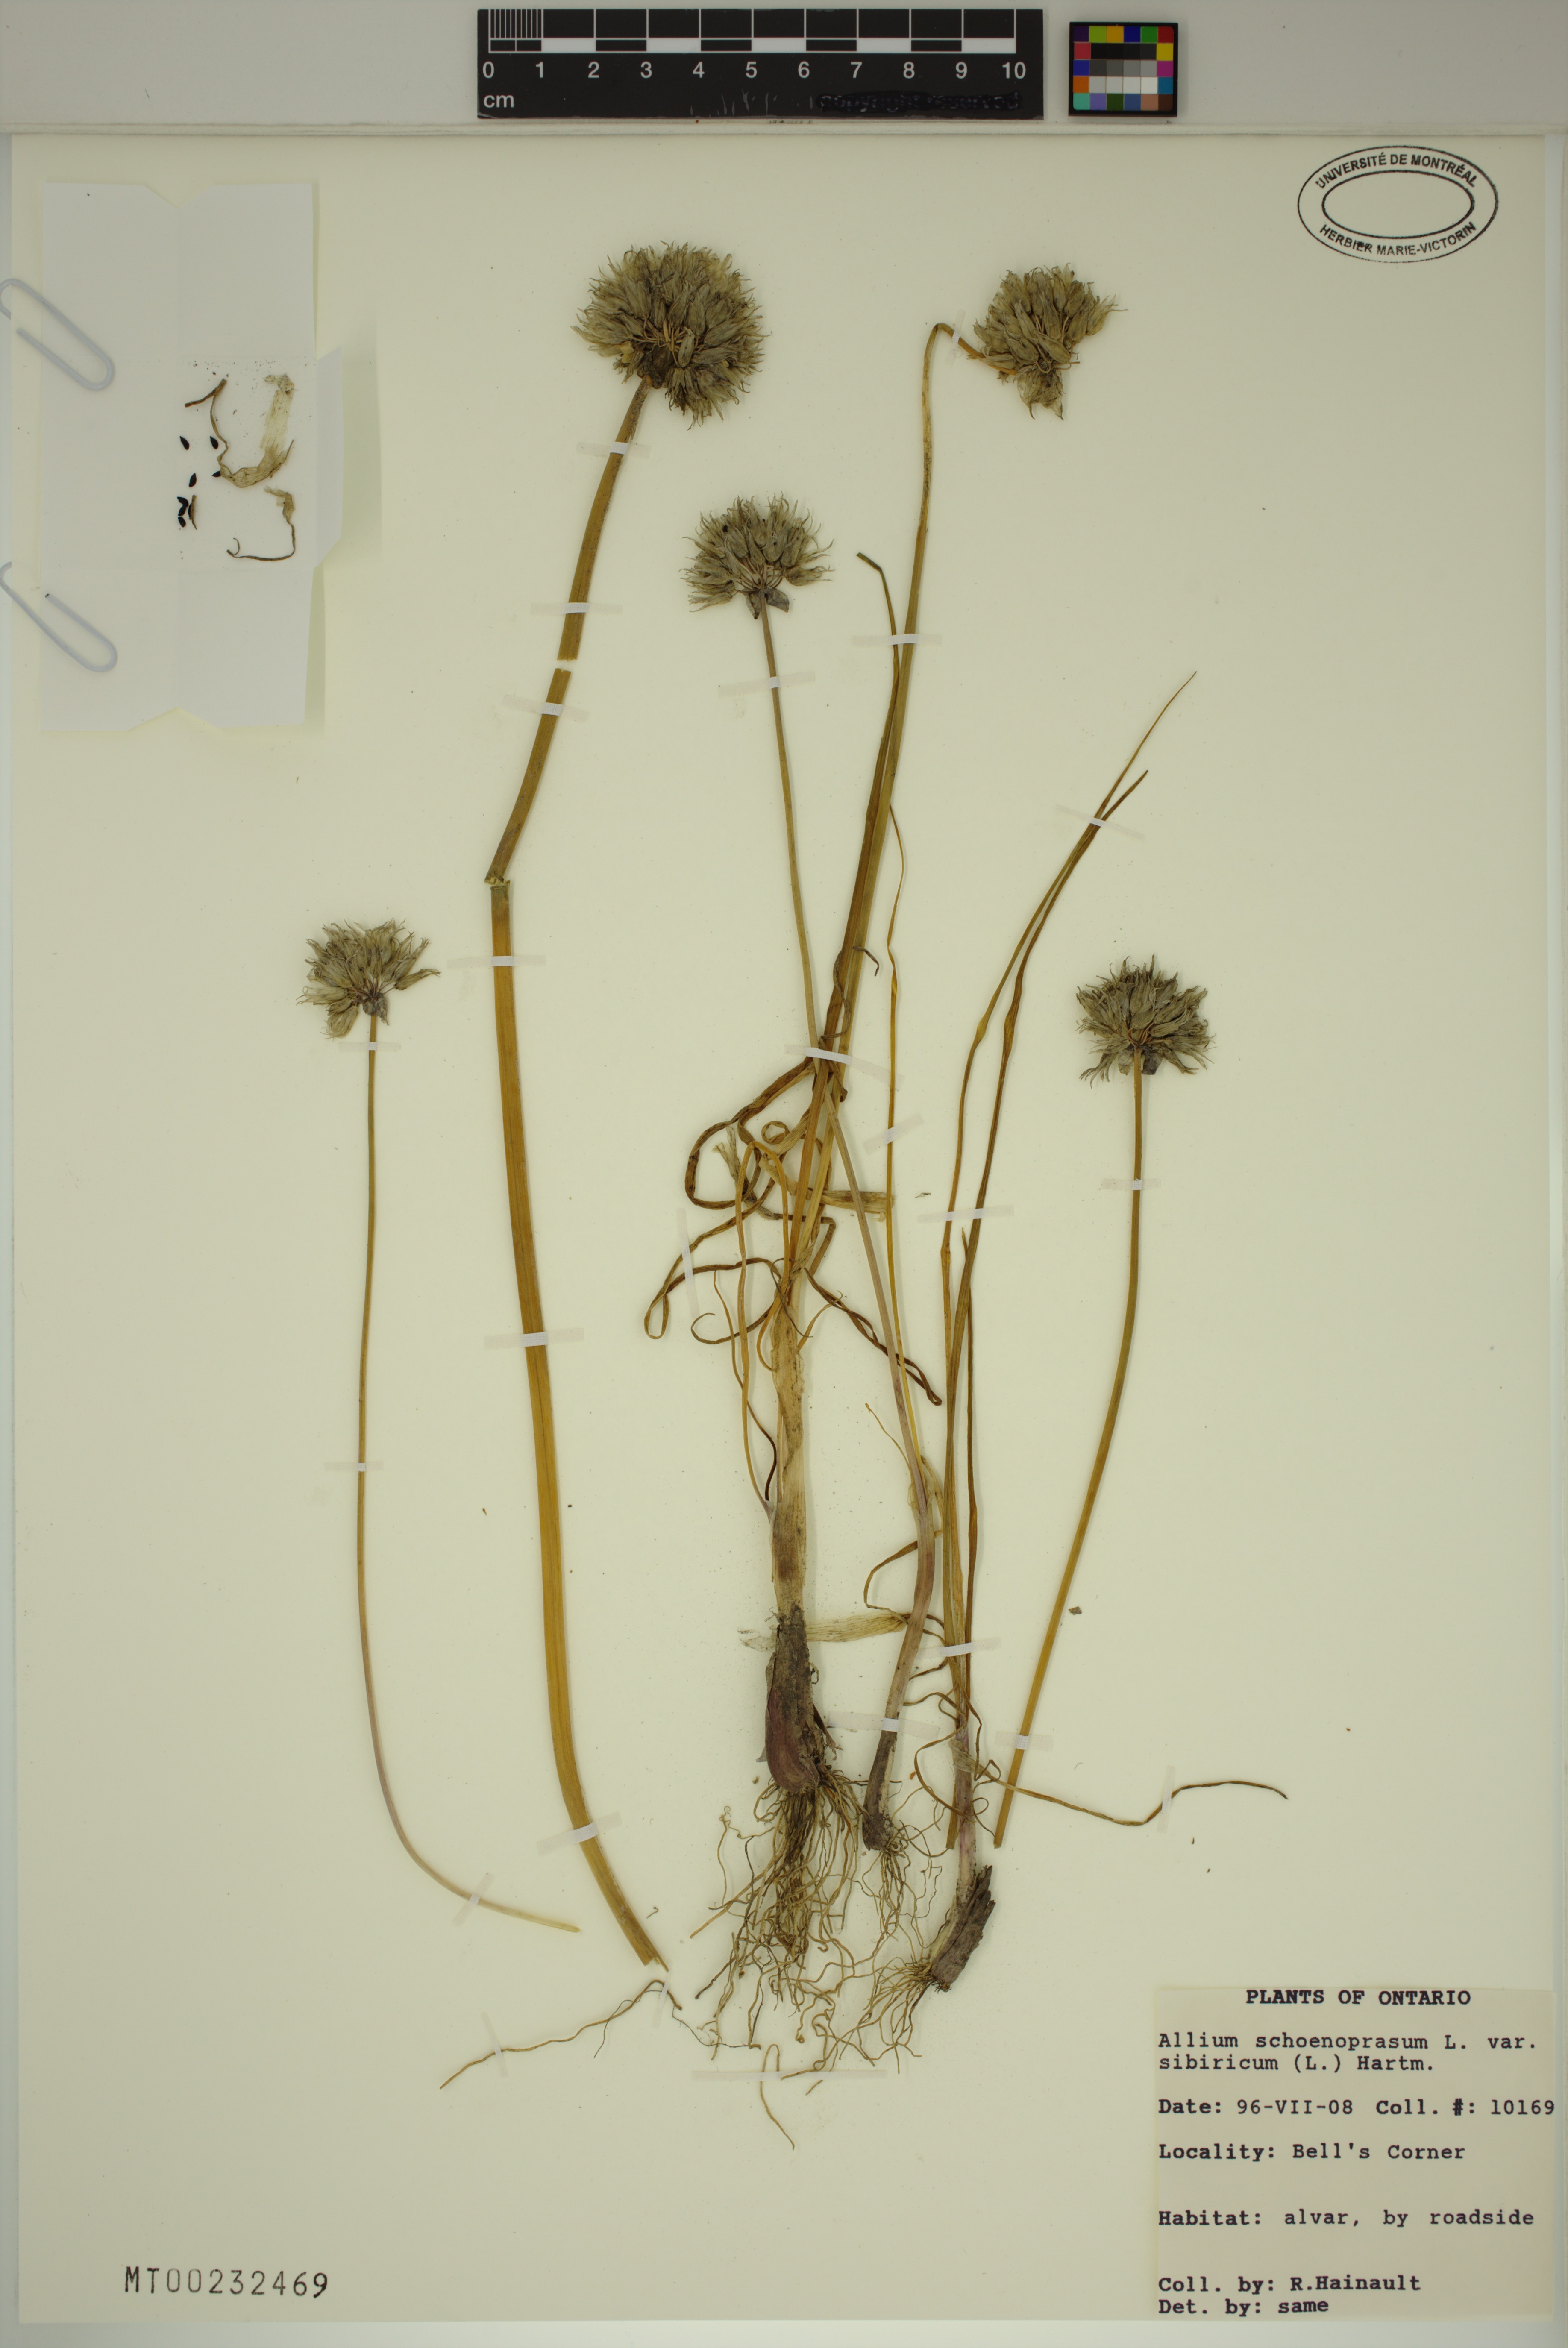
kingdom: Plantae
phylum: Tracheophyta
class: Liliopsida
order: Asparagales
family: Amaryllidaceae
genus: Allium
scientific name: Allium schoenoprasum
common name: Chives
